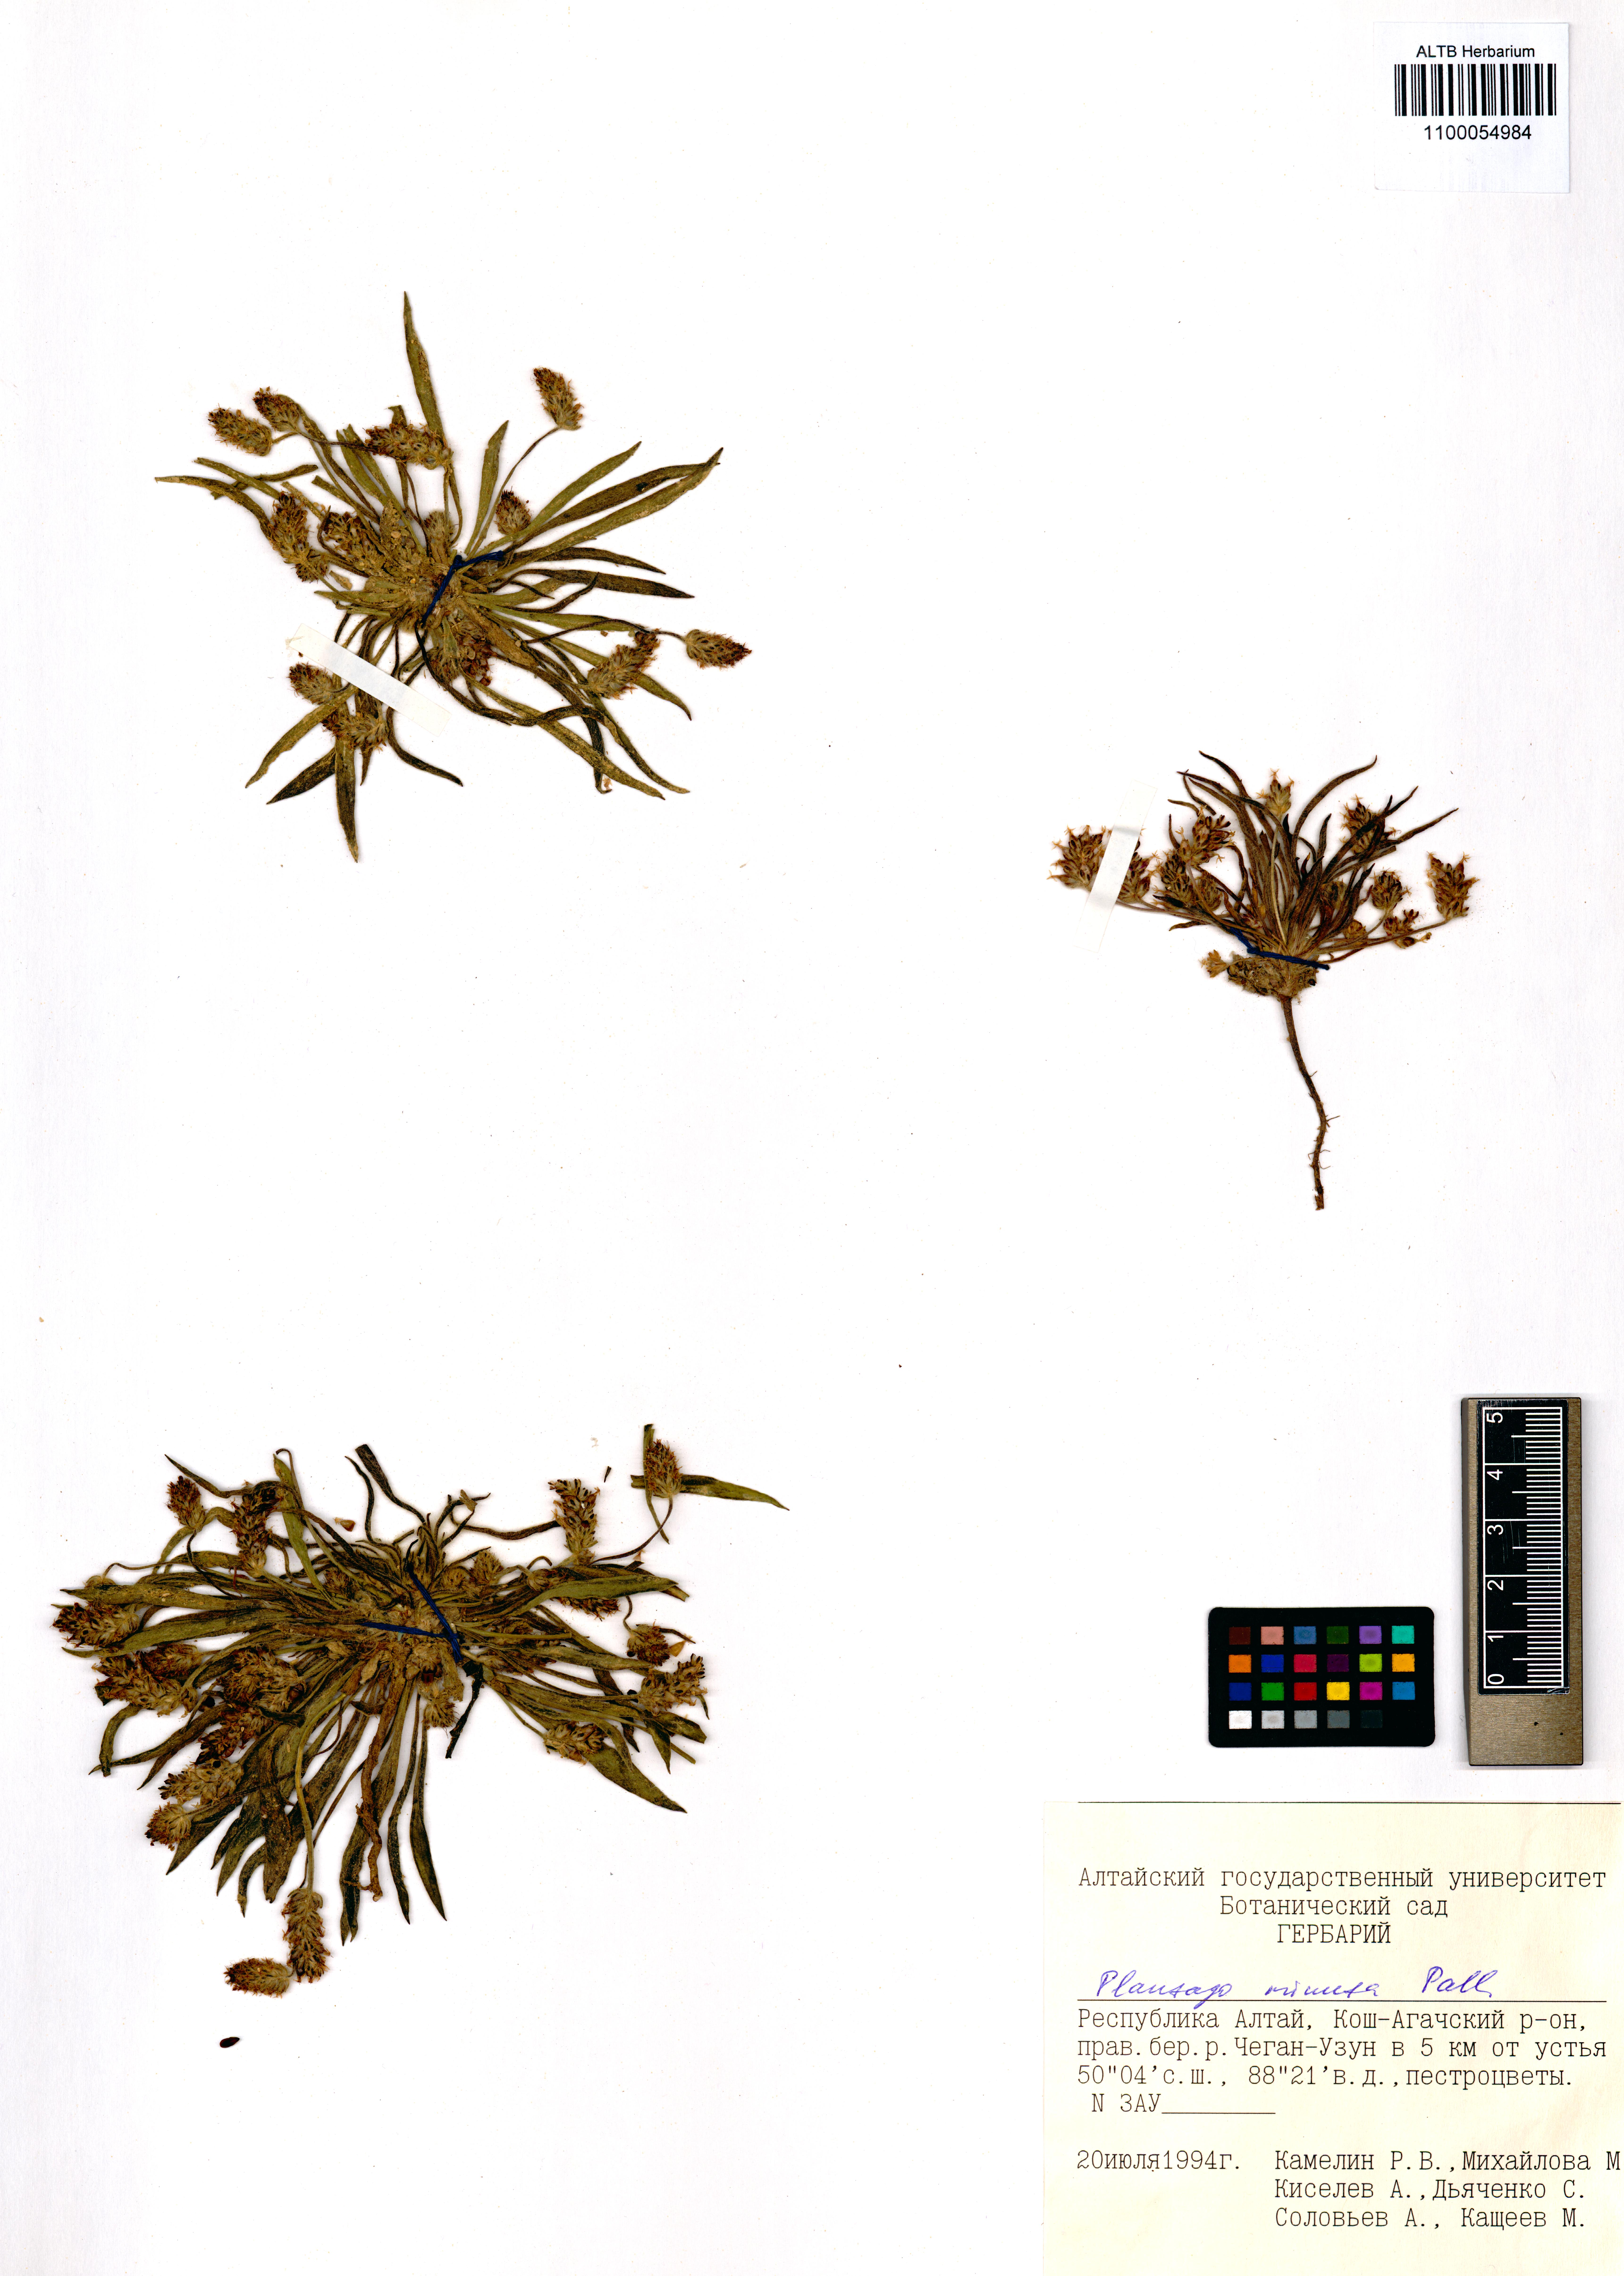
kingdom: Plantae
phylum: Tracheophyta
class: Magnoliopsida
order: Lamiales
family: Plantaginaceae
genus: Plantago
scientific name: Plantago minuta
